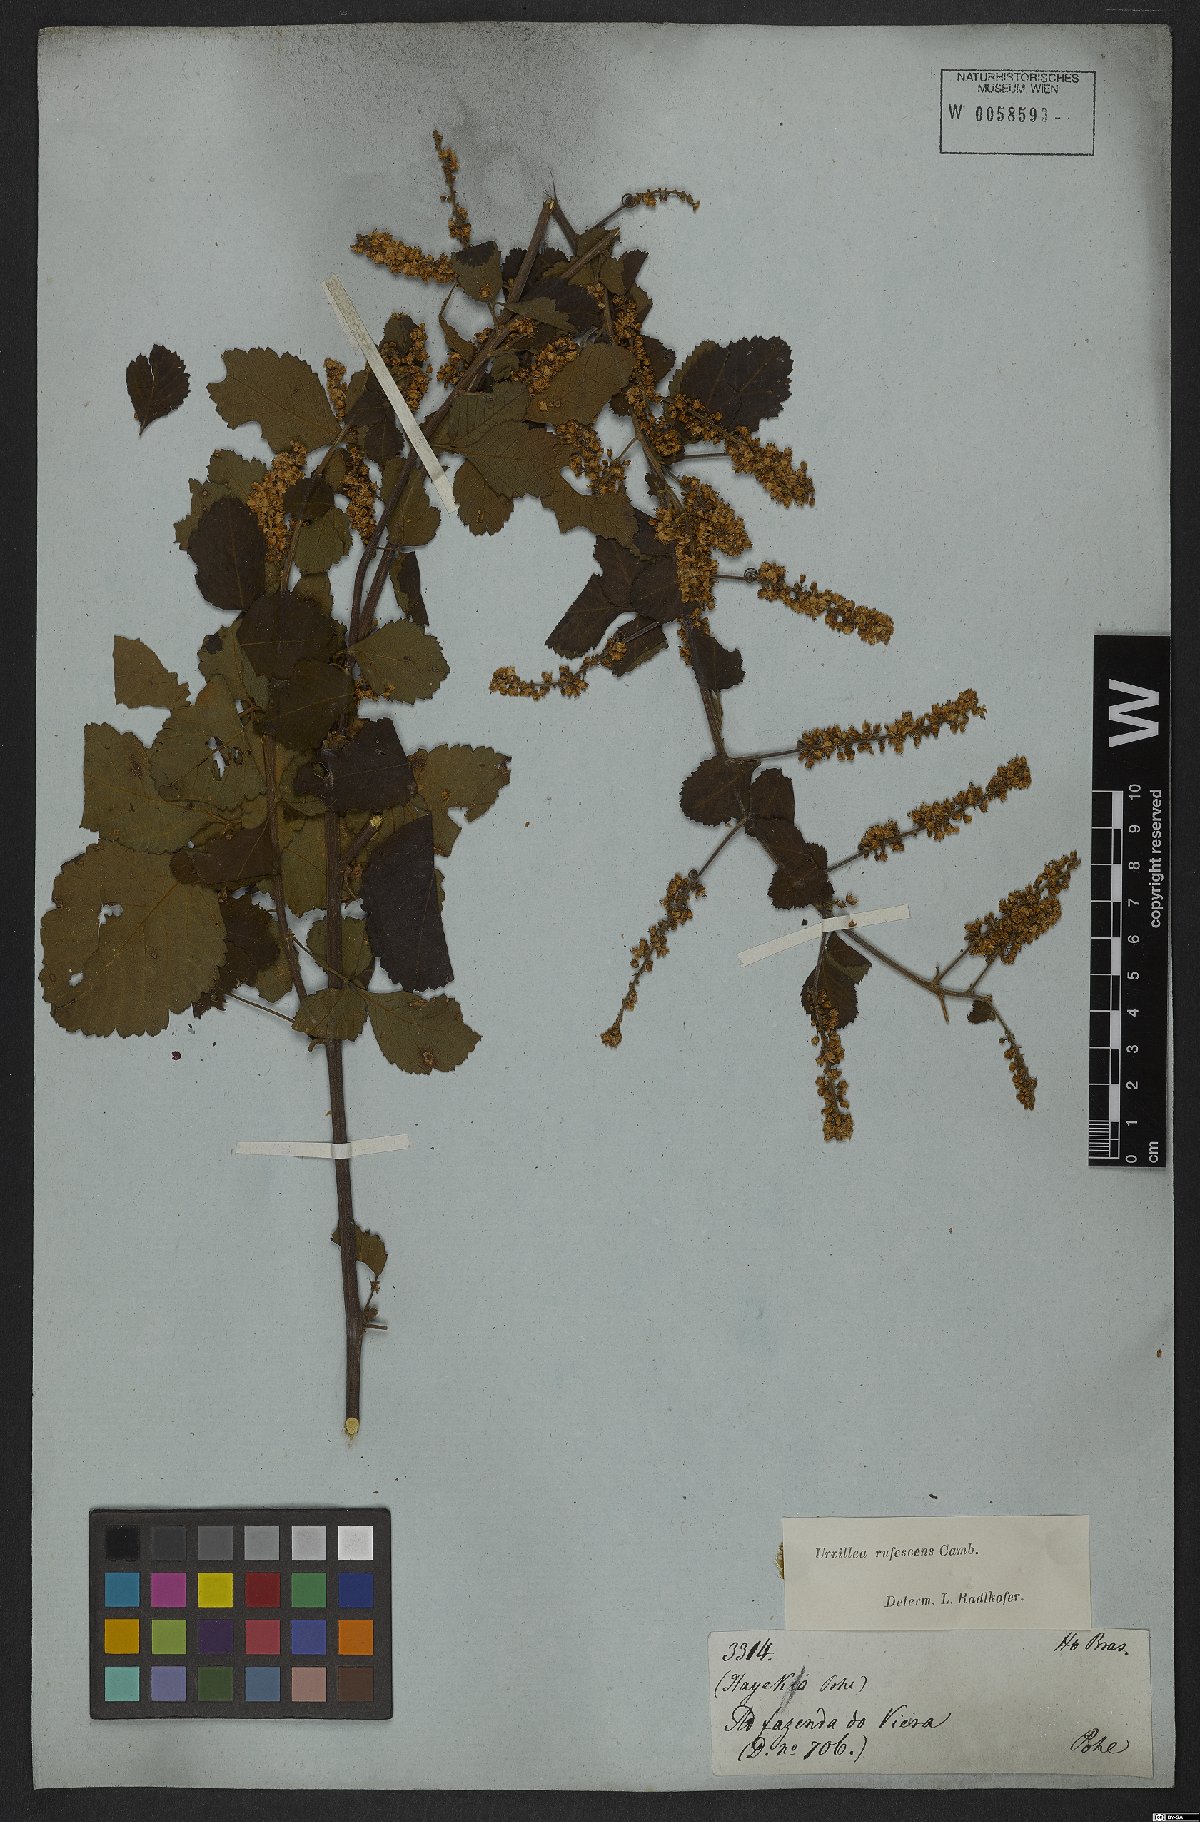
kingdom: Plantae
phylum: Tracheophyta
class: Magnoliopsida
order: Sapindales
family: Sapindaceae
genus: Urvillea
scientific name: Urvillea rufescens
